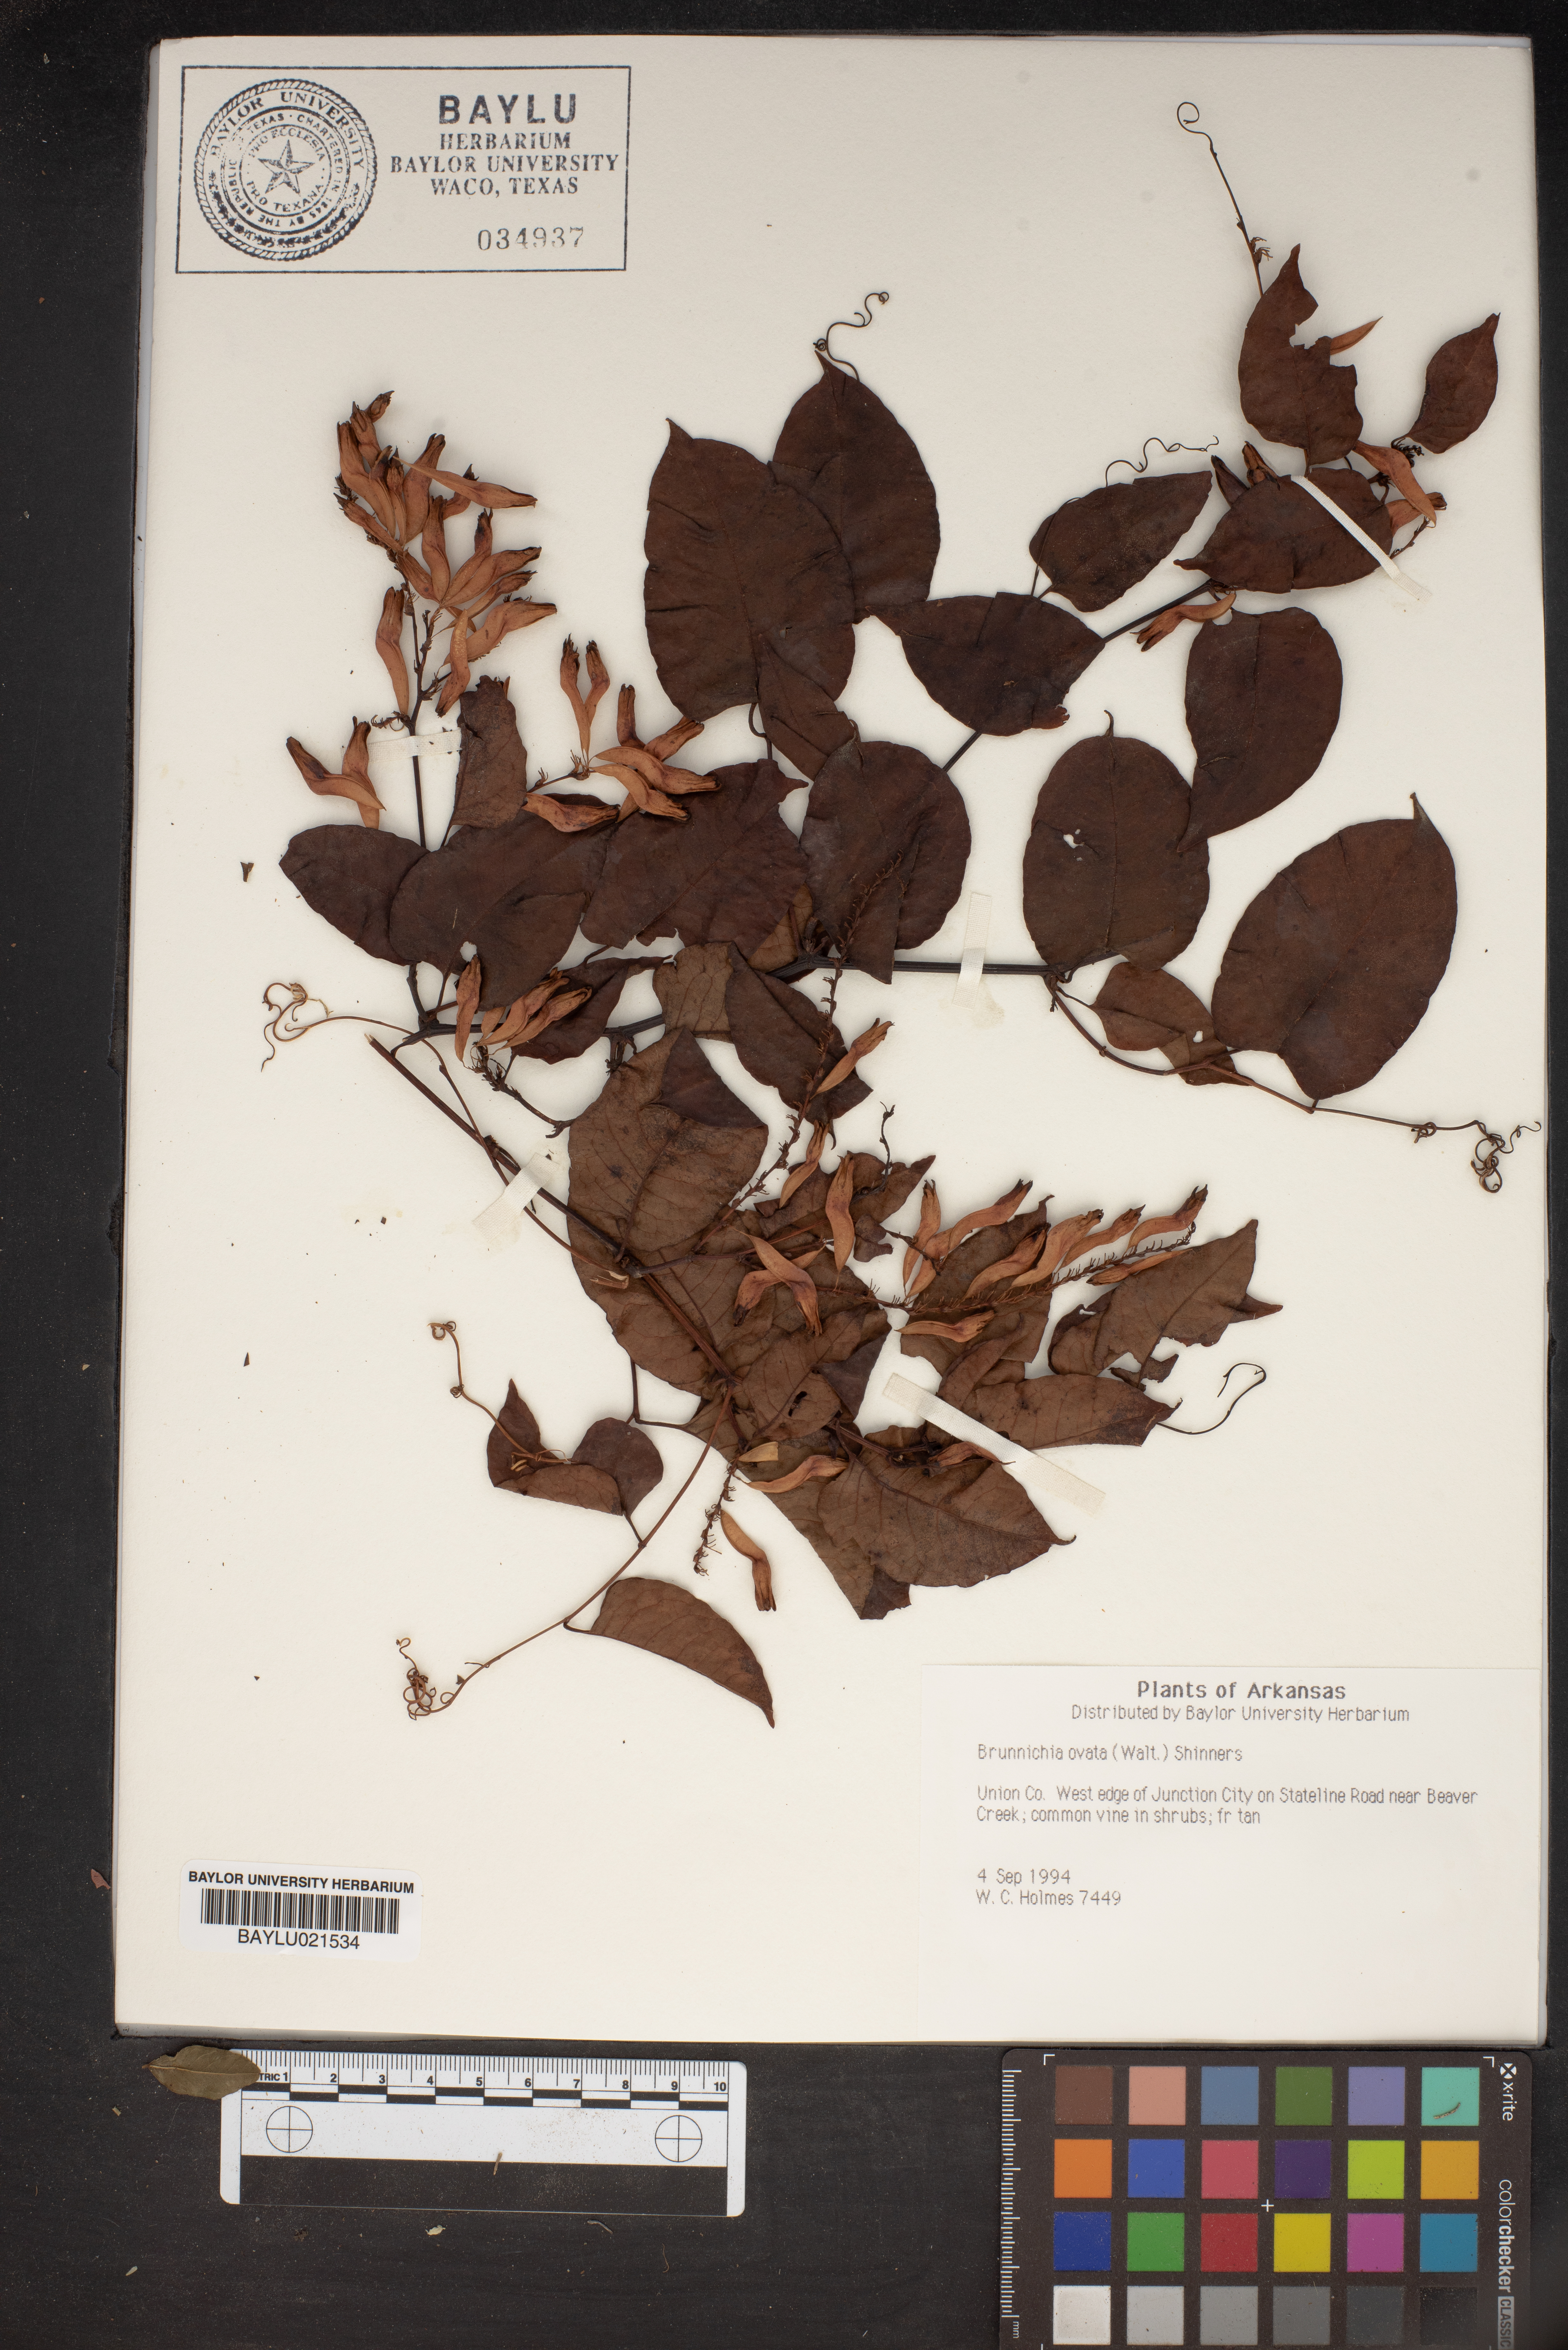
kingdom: Plantae
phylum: Tracheophyta
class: Magnoliopsida
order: Caryophyllales
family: Polygonaceae
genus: Brunnichia
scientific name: Brunnichia ovata
